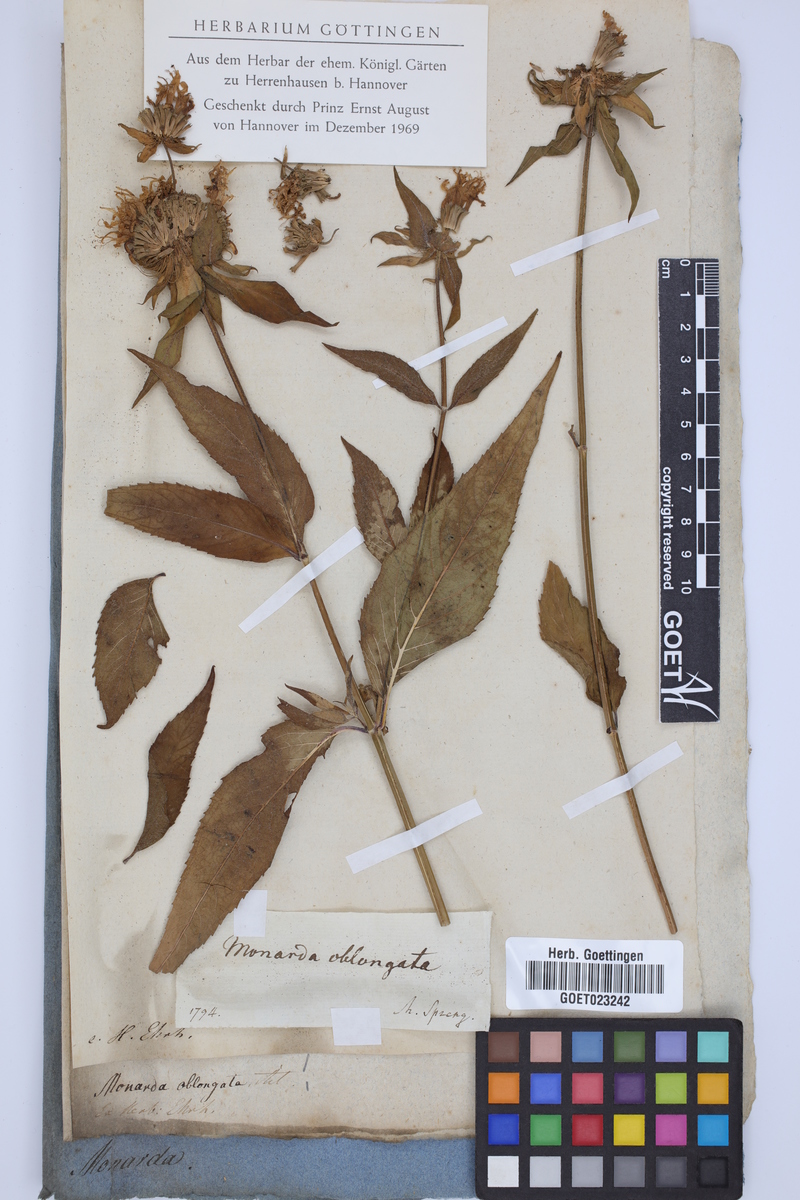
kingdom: Plantae
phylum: Tracheophyta
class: Magnoliopsida
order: Lamiales
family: Lamiaceae
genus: Monarda
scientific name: Monarda fistulosa
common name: Purple beebalm
